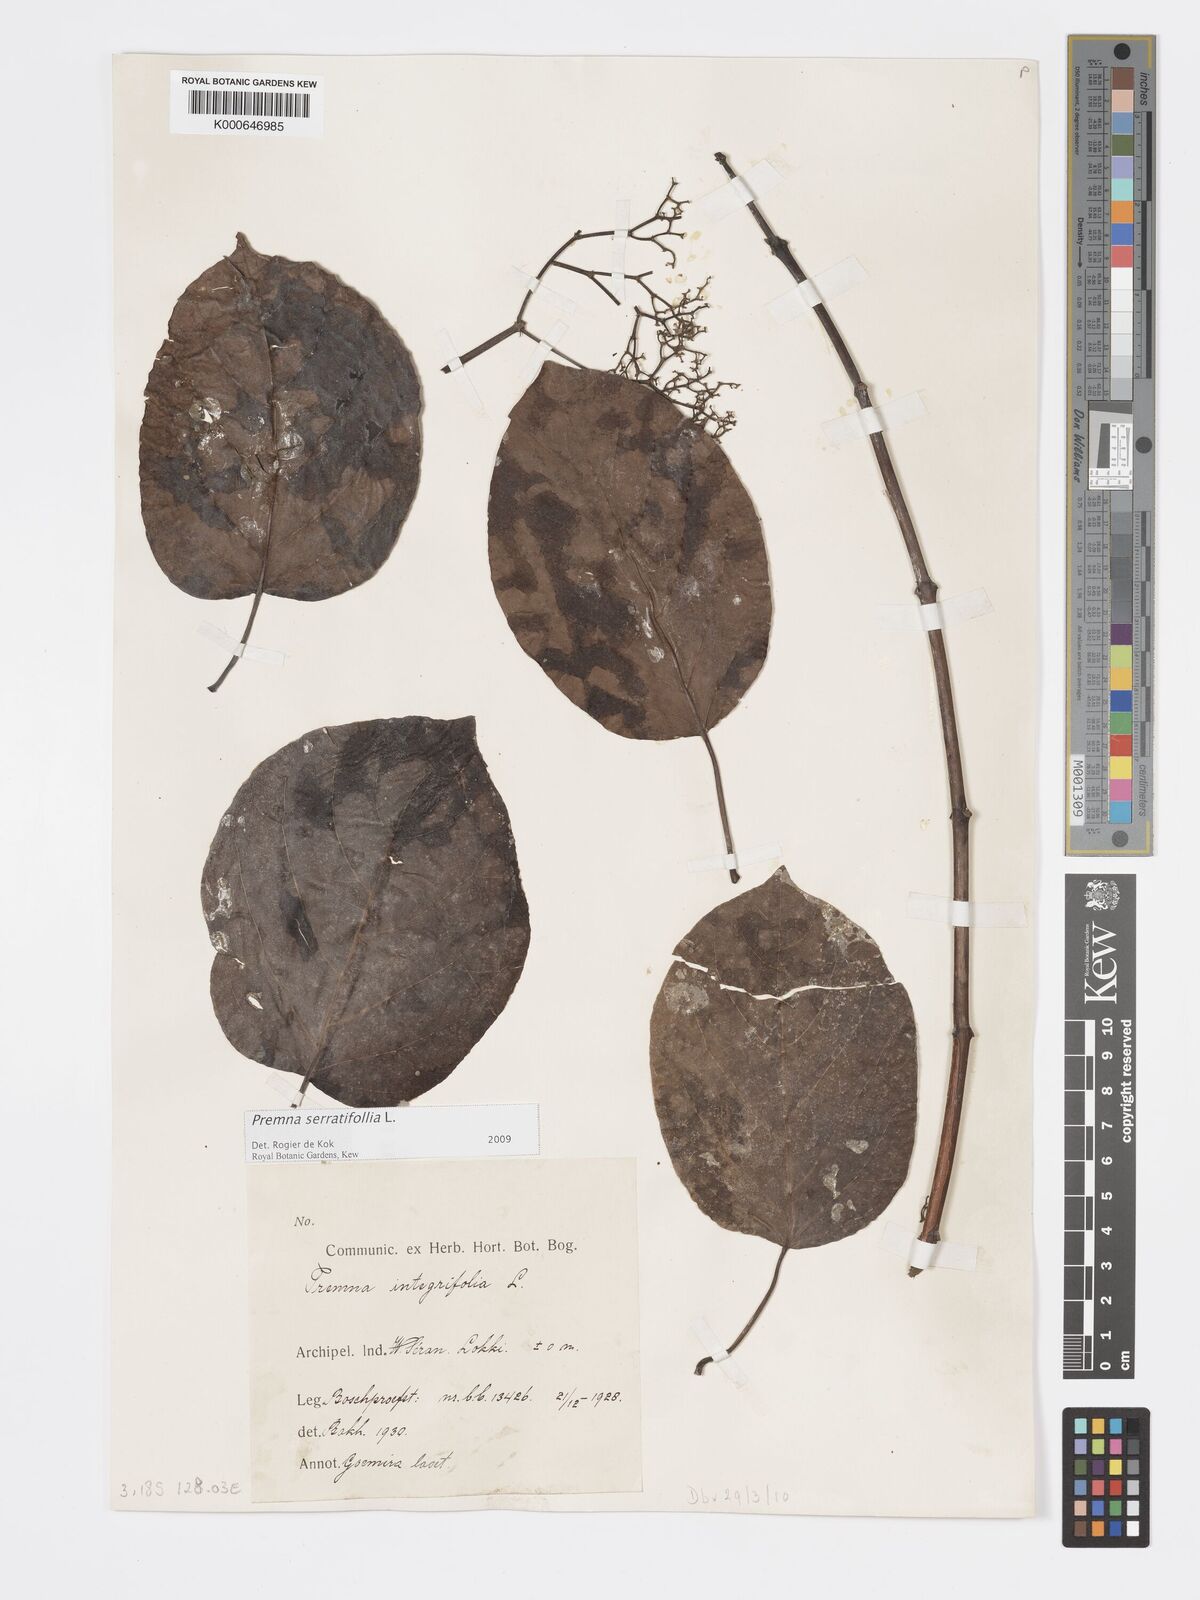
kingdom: Plantae
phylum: Tracheophyta
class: Magnoliopsida
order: Lamiales
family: Lamiaceae
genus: Premna
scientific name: Premna serratifolia
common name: Bastard guelder
